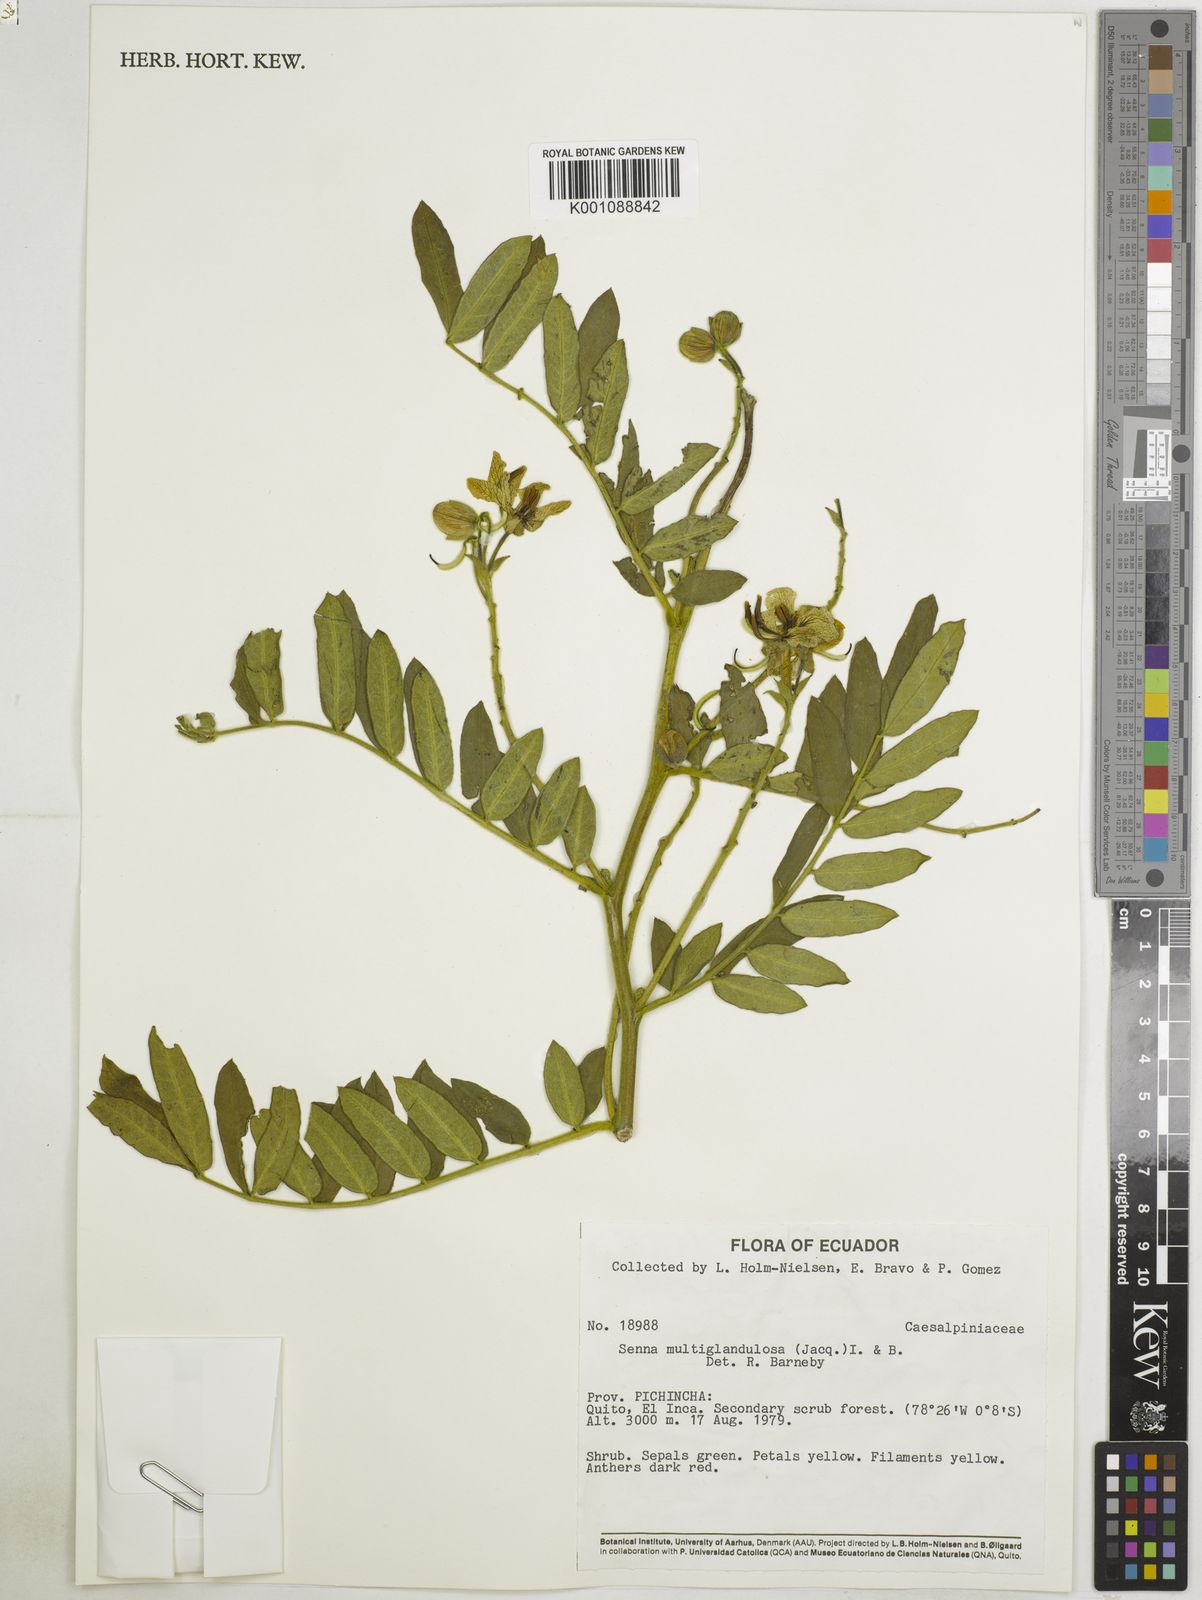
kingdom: Plantae
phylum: Tracheophyta
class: Magnoliopsida
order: Fabales
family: Fabaceae
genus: Senna
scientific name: Senna multiglandulosa
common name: Glandular senna
